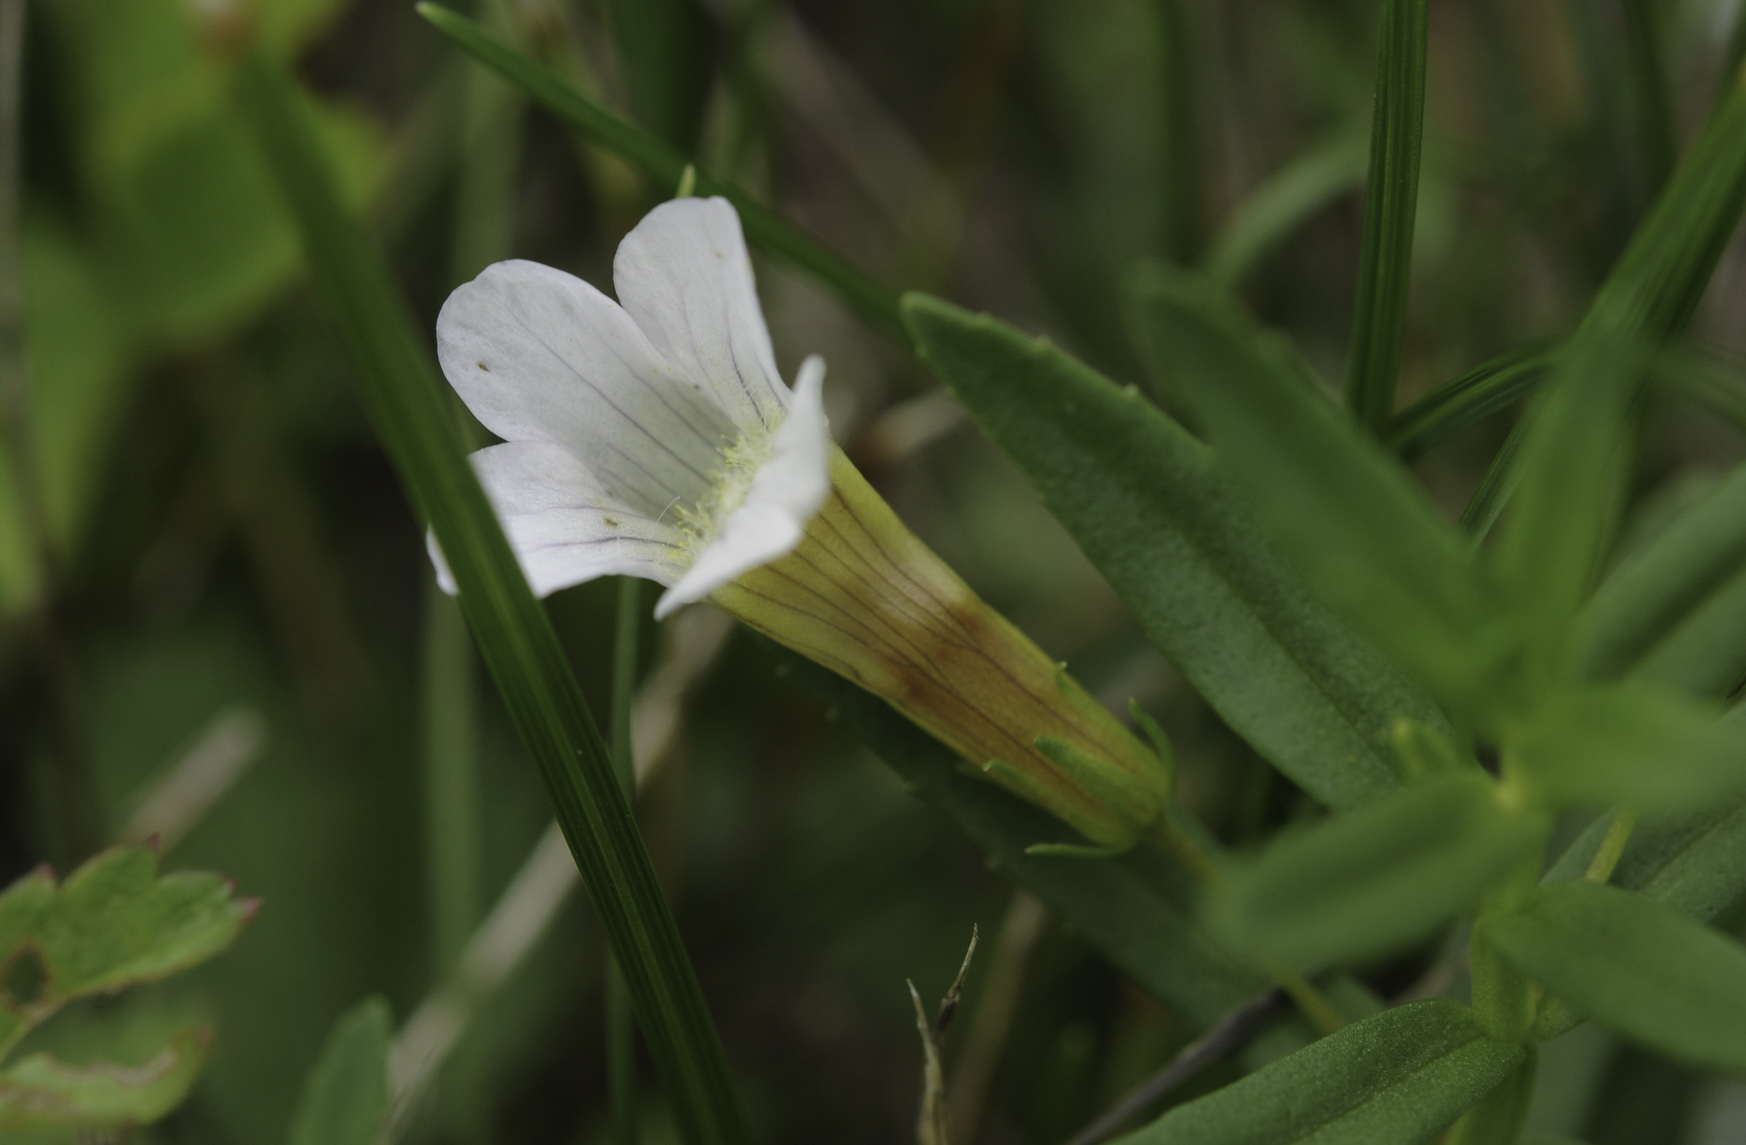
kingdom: Plantae
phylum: Tracheophyta
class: Magnoliopsida
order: Lamiales
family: Plantaginaceae
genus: Gratiola
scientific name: Gratiola officinalis
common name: Gratiola
